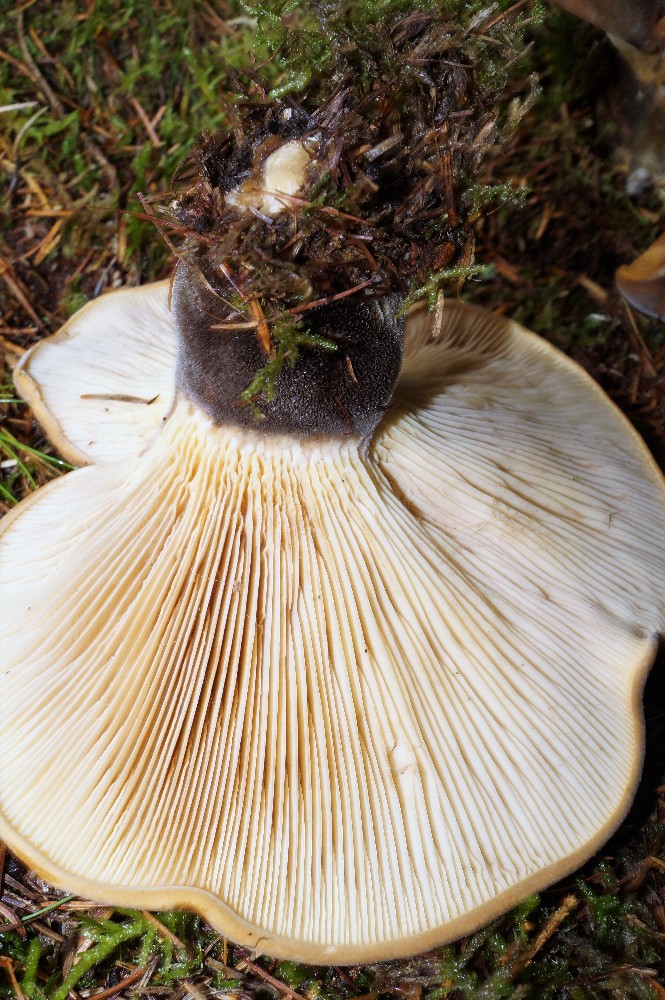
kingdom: Fungi
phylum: Basidiomycota
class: Agaricomycetes
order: Boletales
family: Tapinellaceae
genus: Tapinella
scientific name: Tapinella atrotomentosa
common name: sortfiltet viftesvamp
